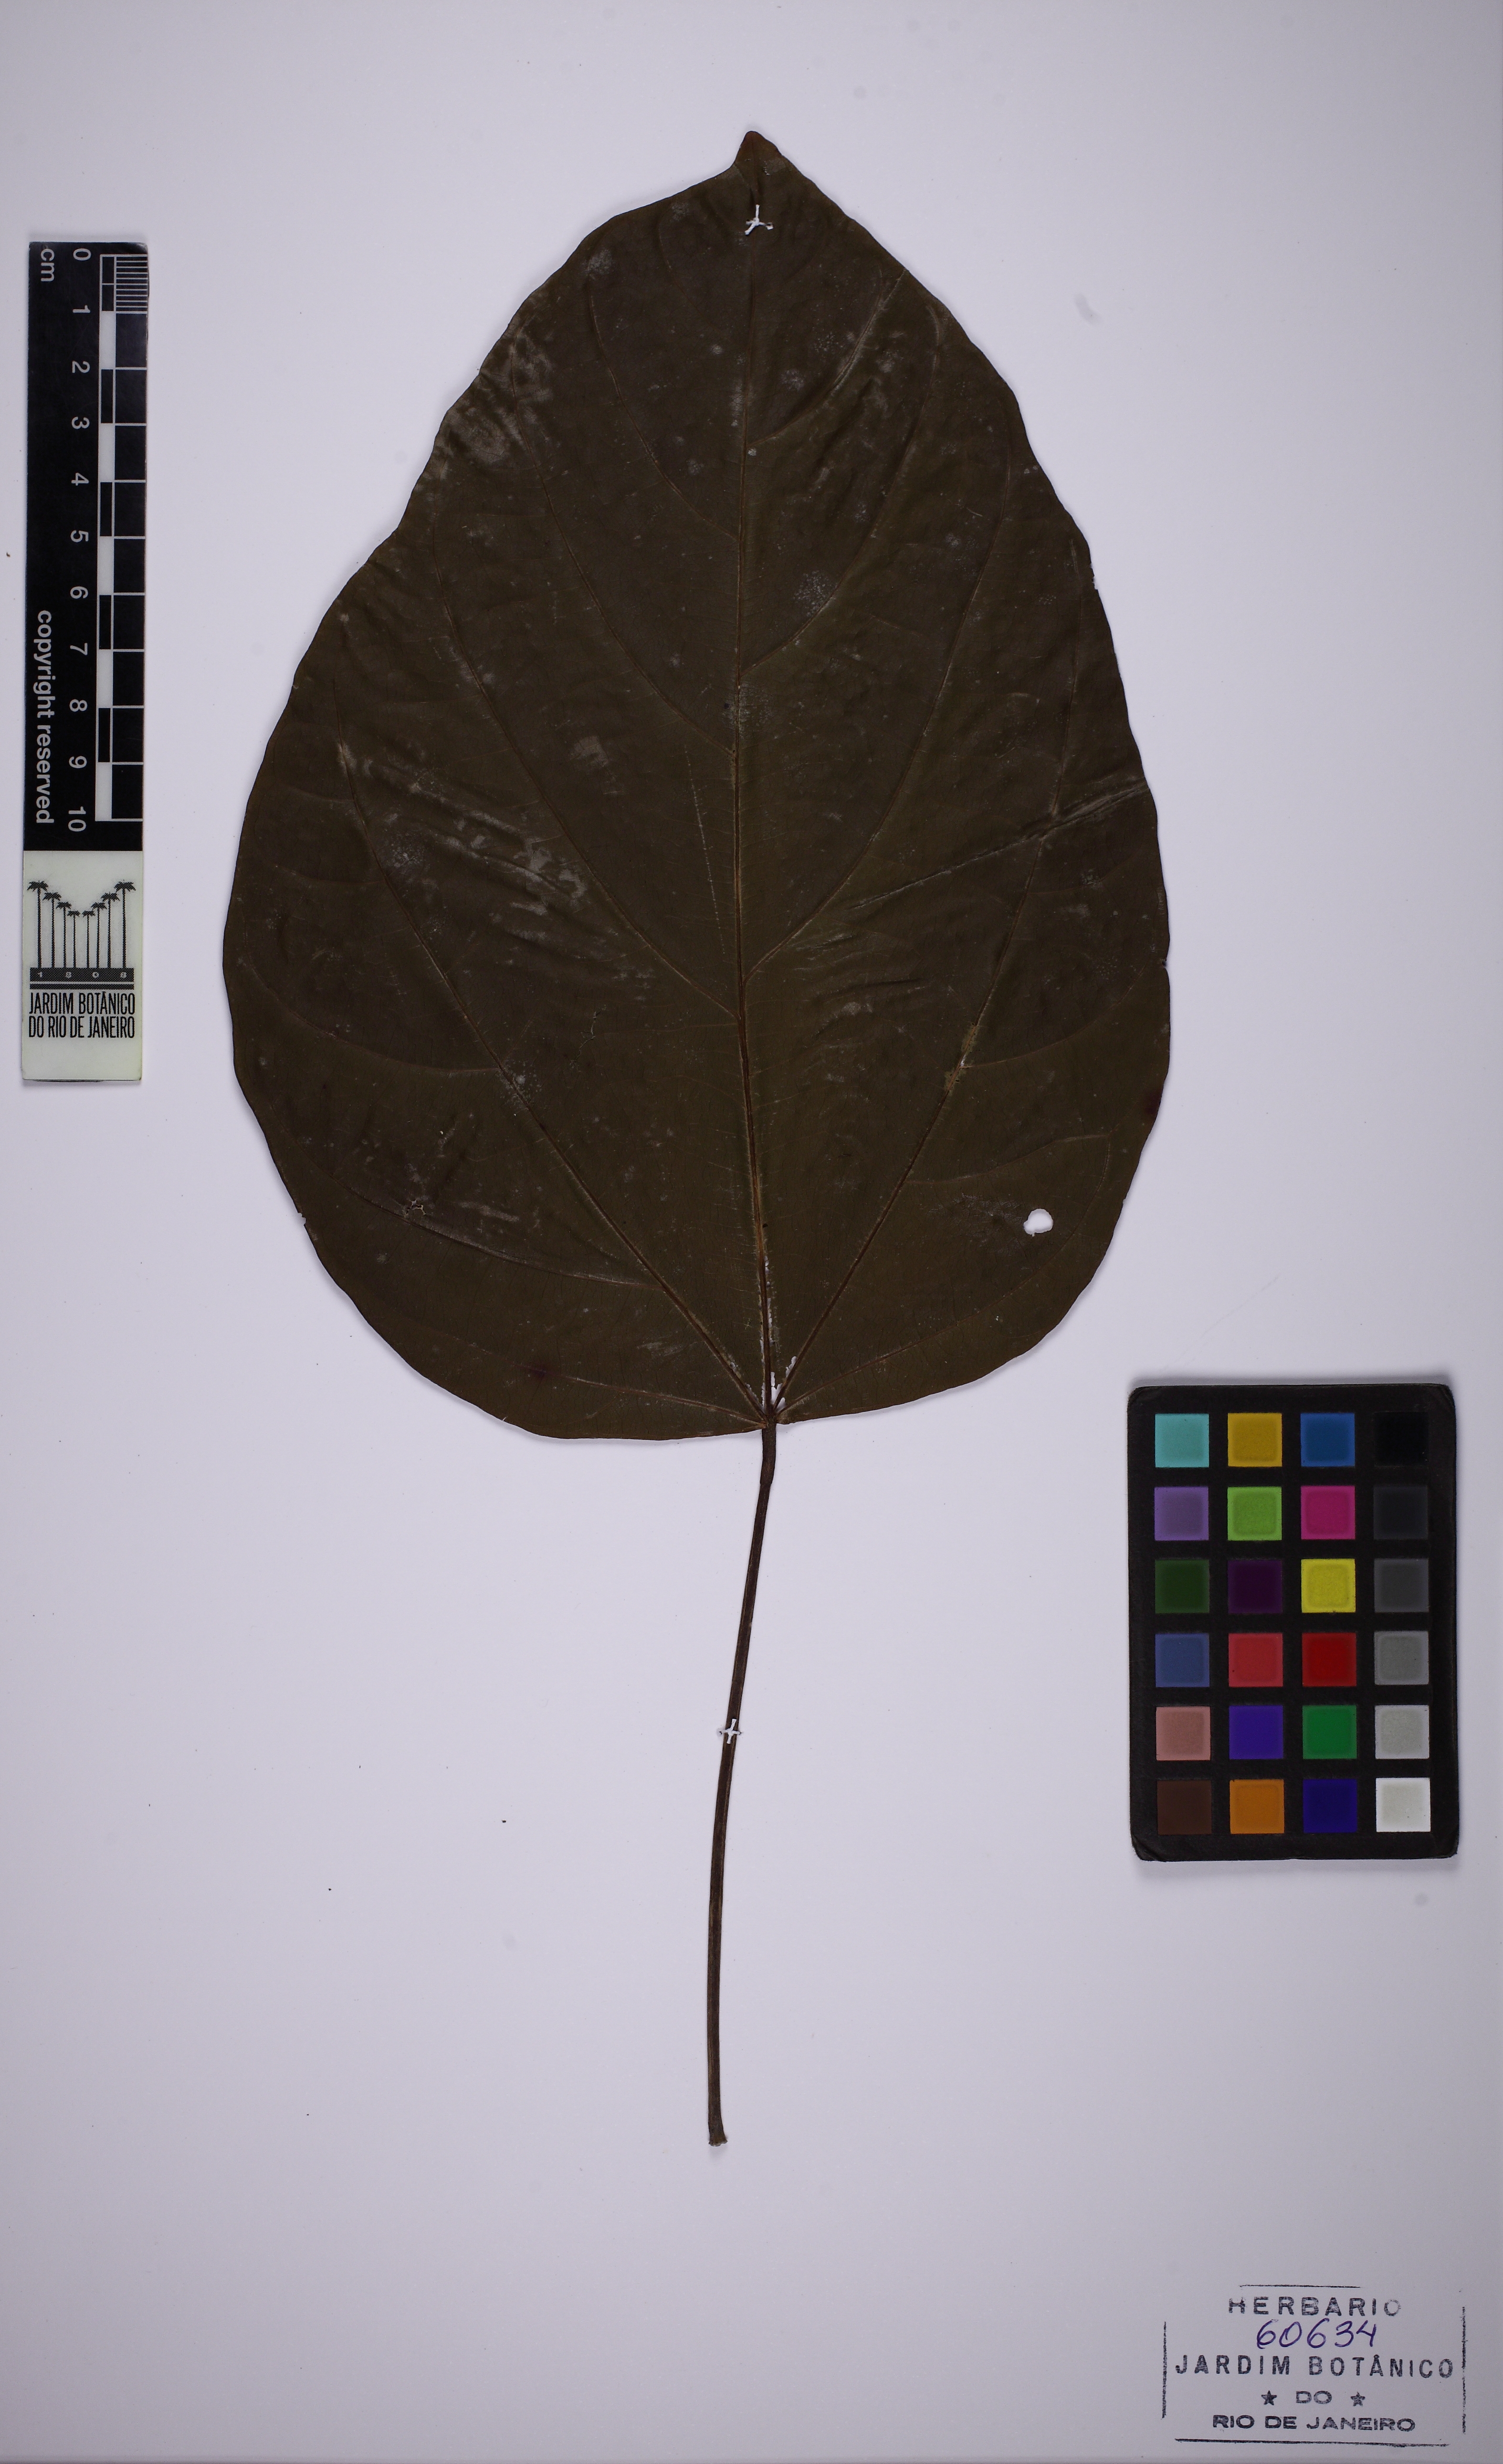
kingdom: Plantae
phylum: Tracheophyta
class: Magnoliopsida
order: Malvales
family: Malvaceae
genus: Pterygota
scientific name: Pterygota brasiliensis
